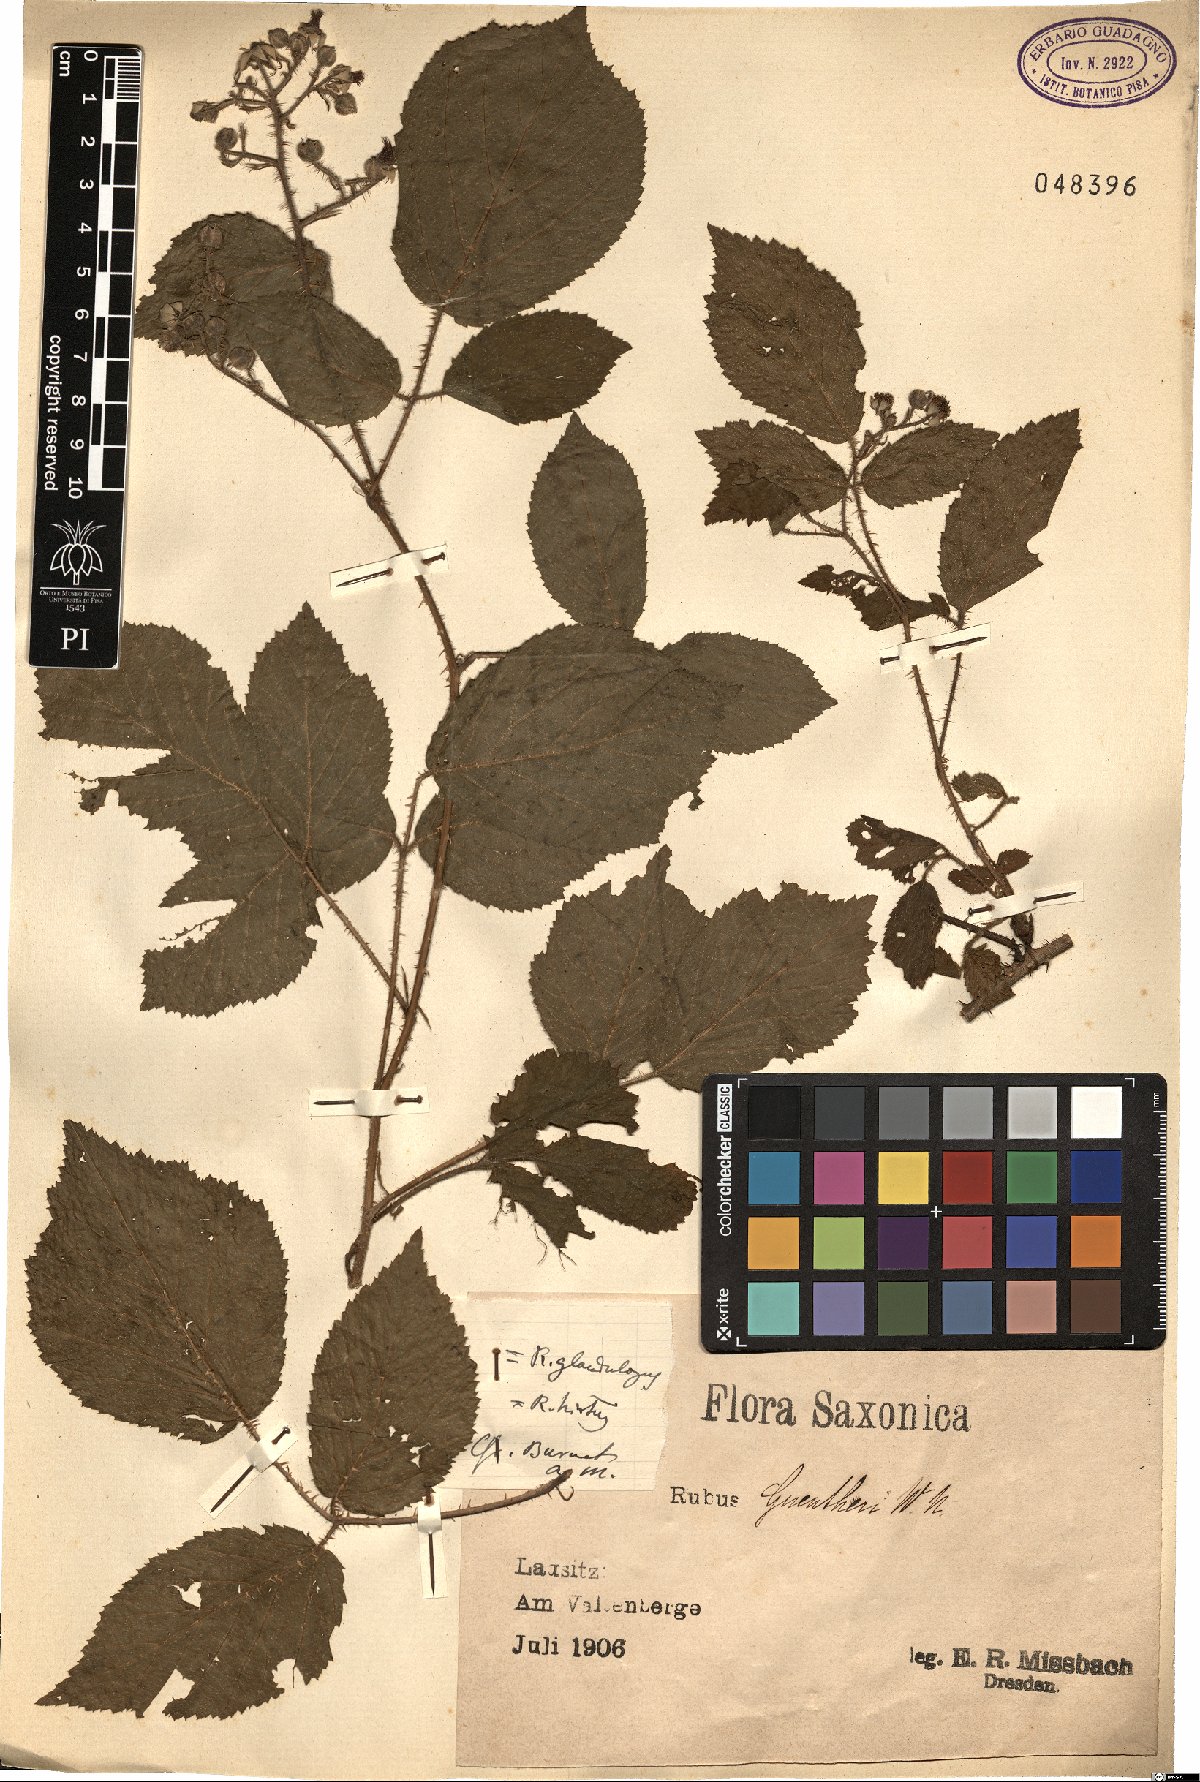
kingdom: Plantae
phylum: Tracheophyta
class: Magnoliopsida
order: Rosales
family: Rosaceae
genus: Rubus
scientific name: Rubus hirtus
